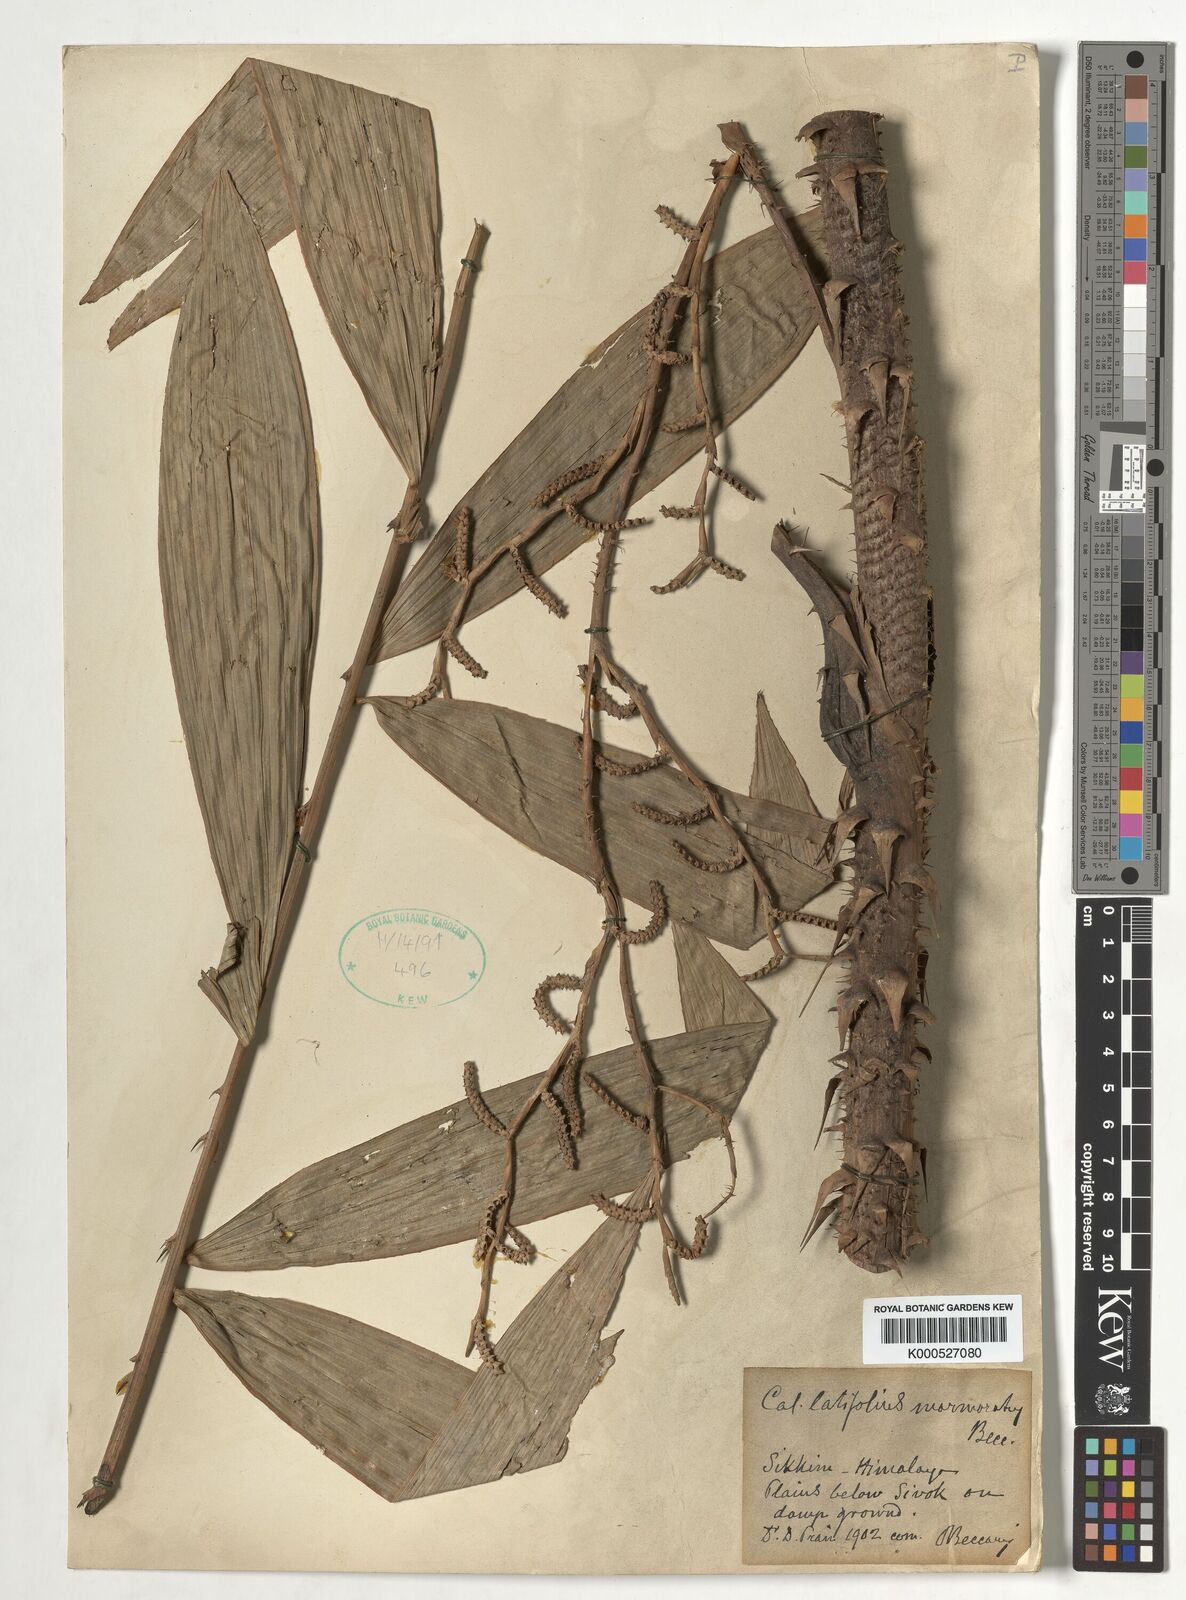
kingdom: Plantae
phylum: Tracheophyta
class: Liliopsida
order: Arecales
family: Arecaceae
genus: Calamus
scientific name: Calamus latifolius
